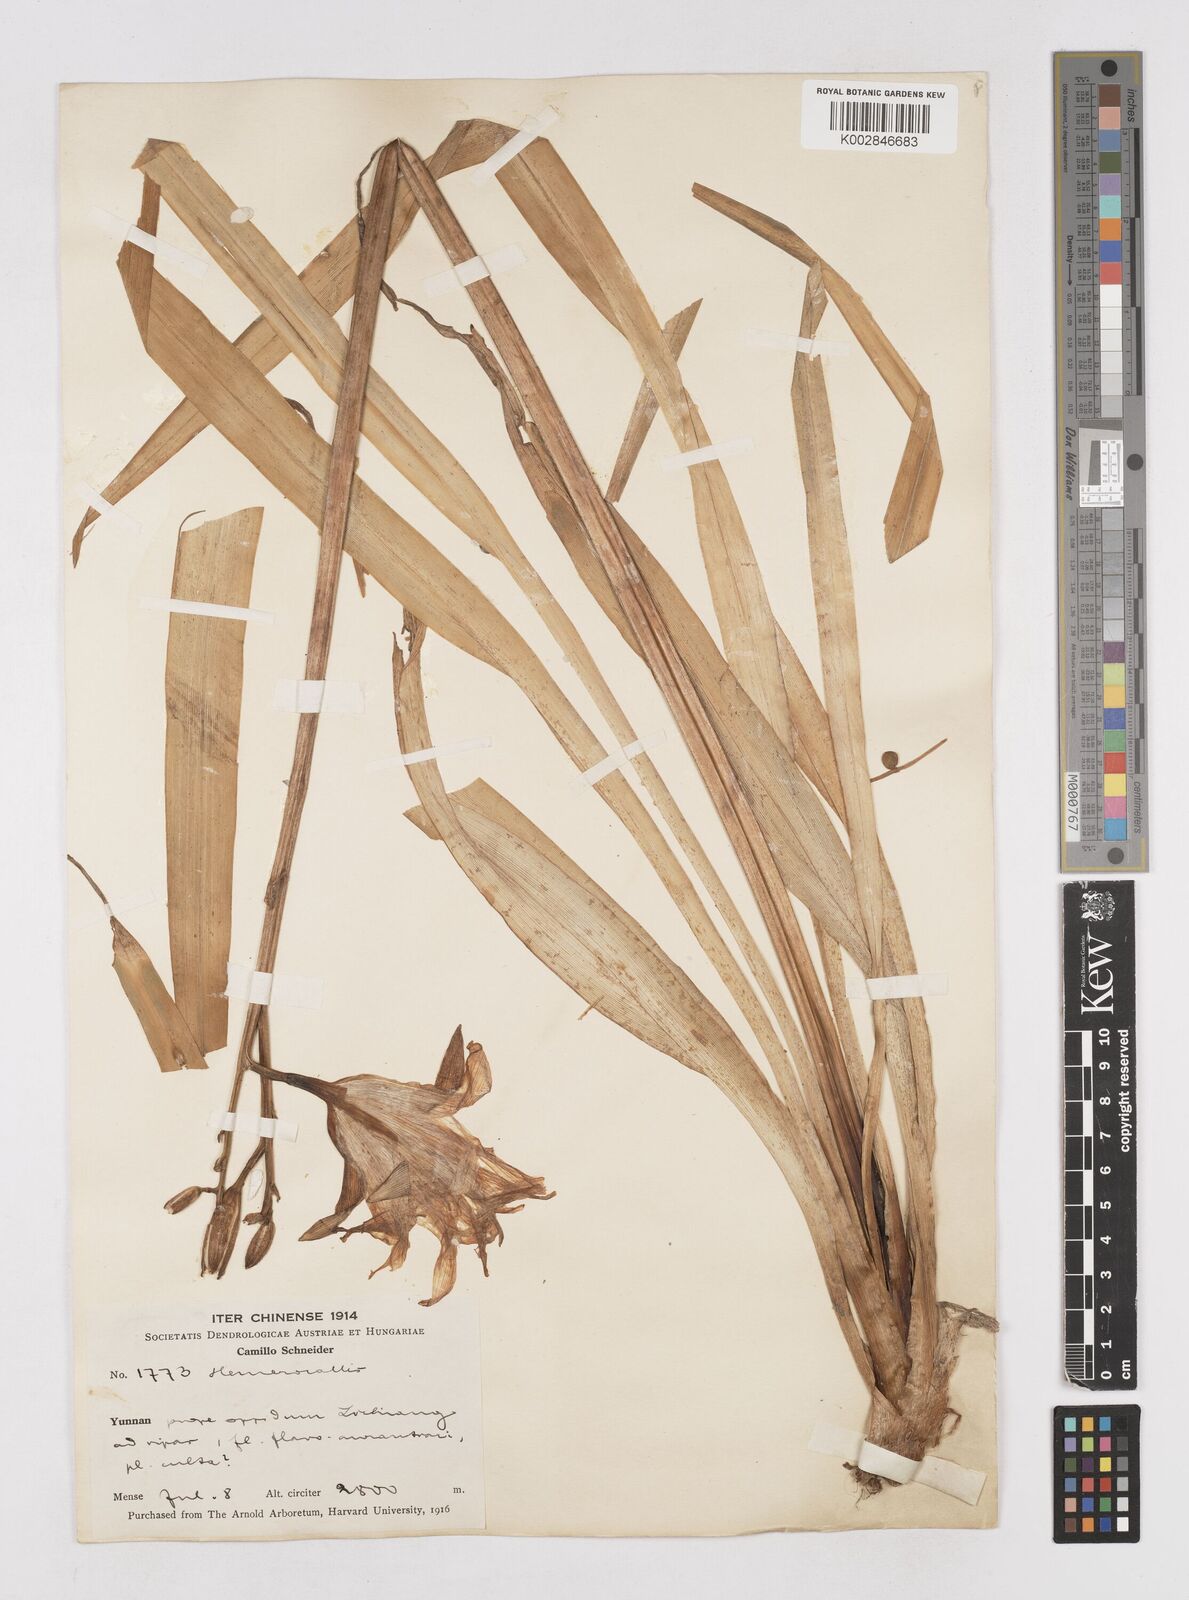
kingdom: Plantae
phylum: Tracheophyta
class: Liliopsida
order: Asparagales
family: Asphodelaceae
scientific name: Asphodelaceae
